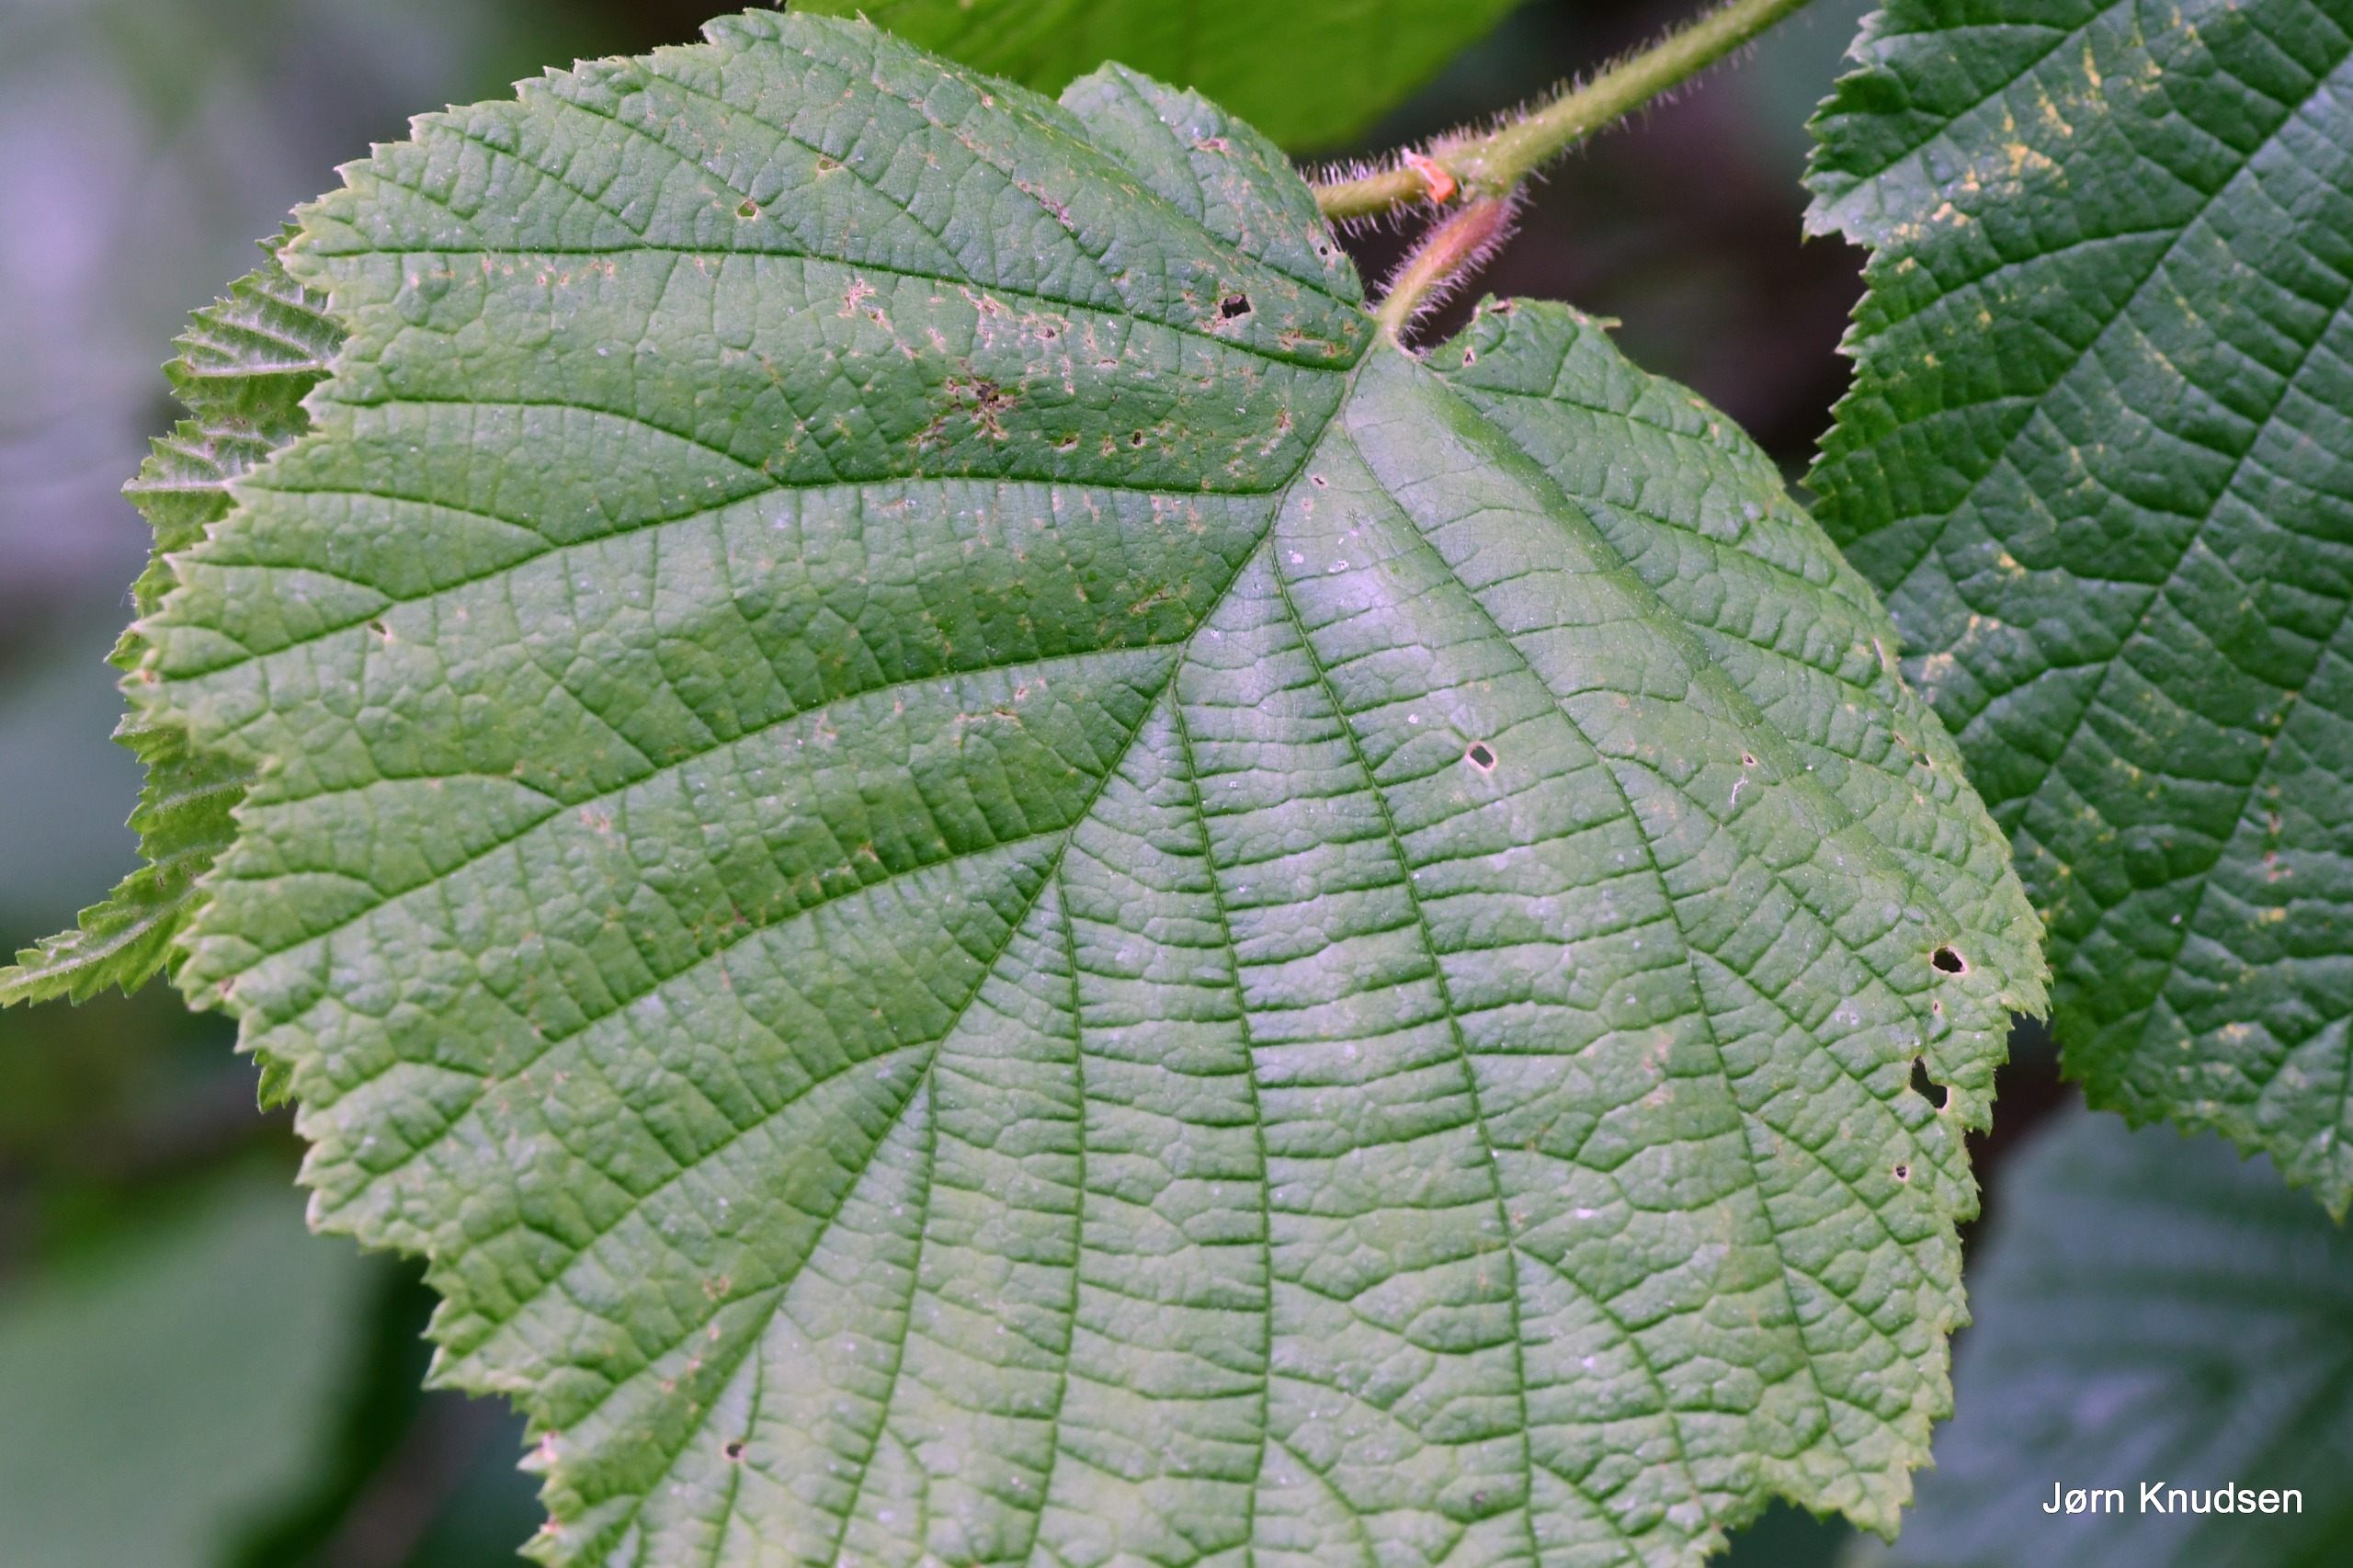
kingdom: Plantae
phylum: Tracheophyta
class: Magnoliopsida
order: Fagales
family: Betulaceae
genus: Corylus
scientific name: Corylus avellana
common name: Hassel
